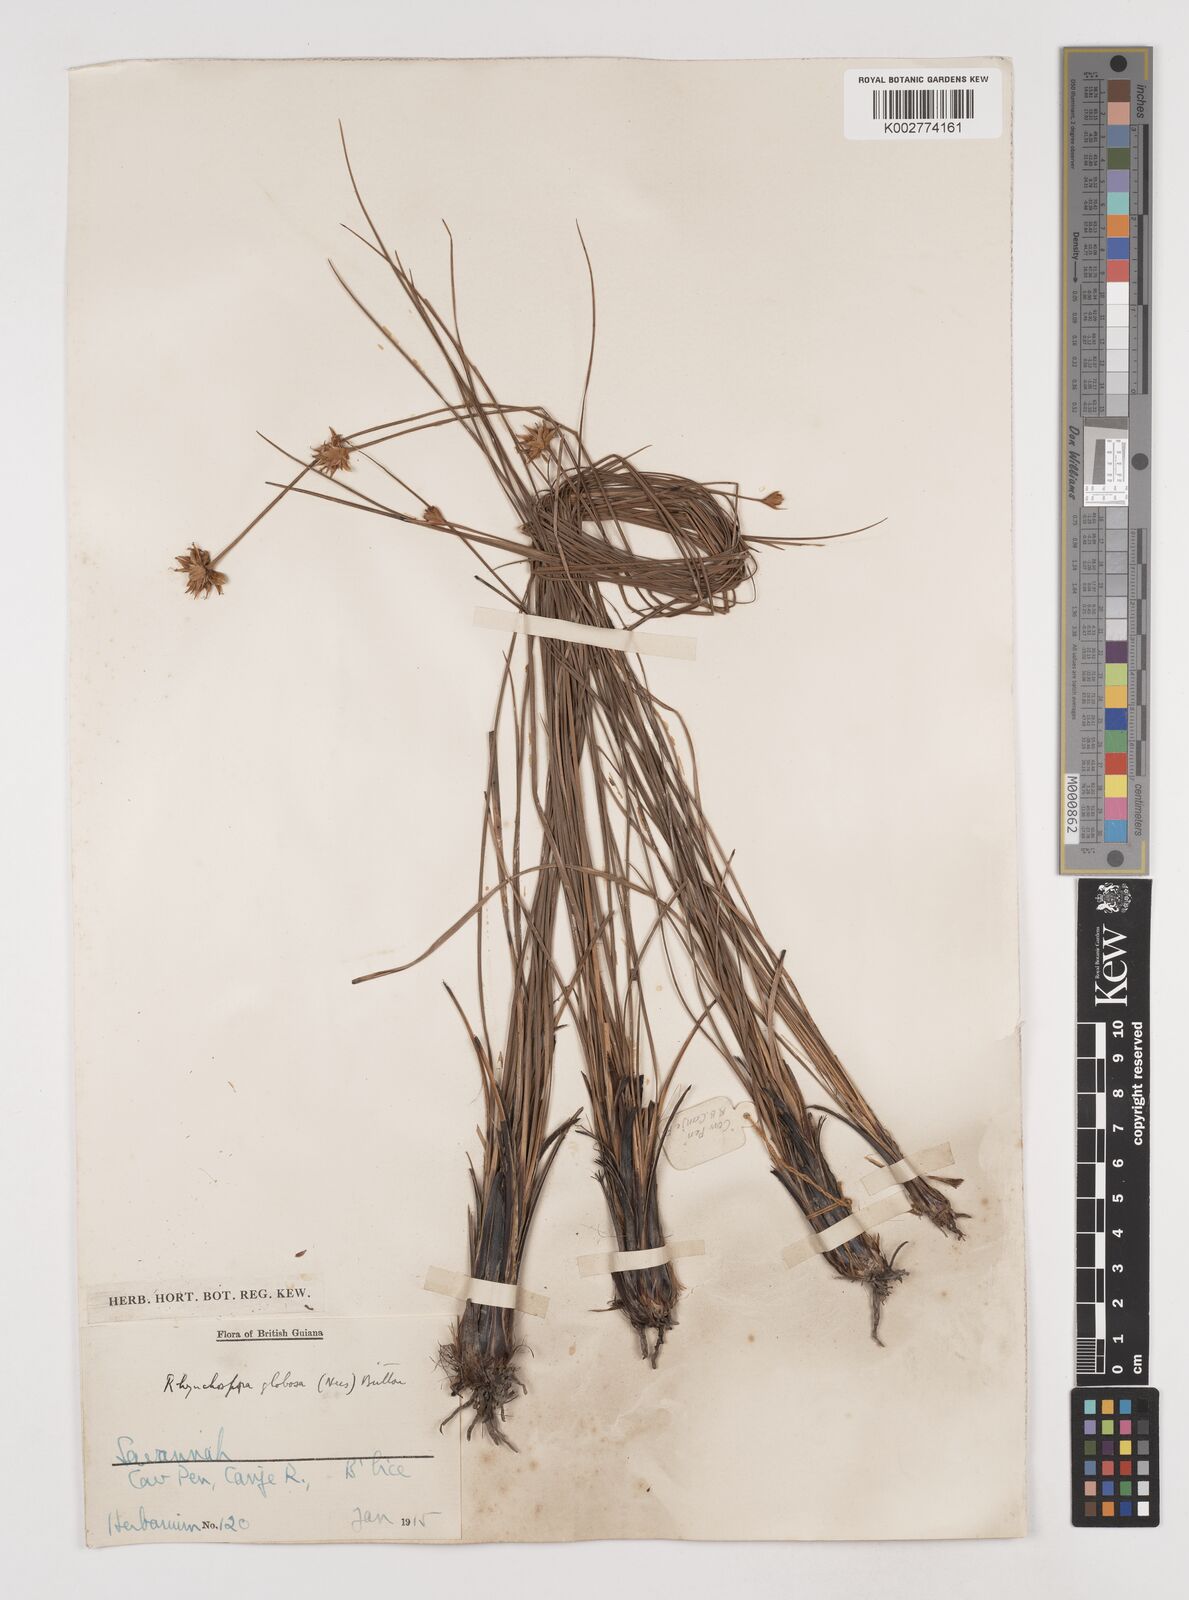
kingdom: Plantae
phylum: Tracheophyta
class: Liliopsida
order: Poales
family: Cyperaceae
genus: Rhynchospora
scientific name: Rhynchospora globosa
